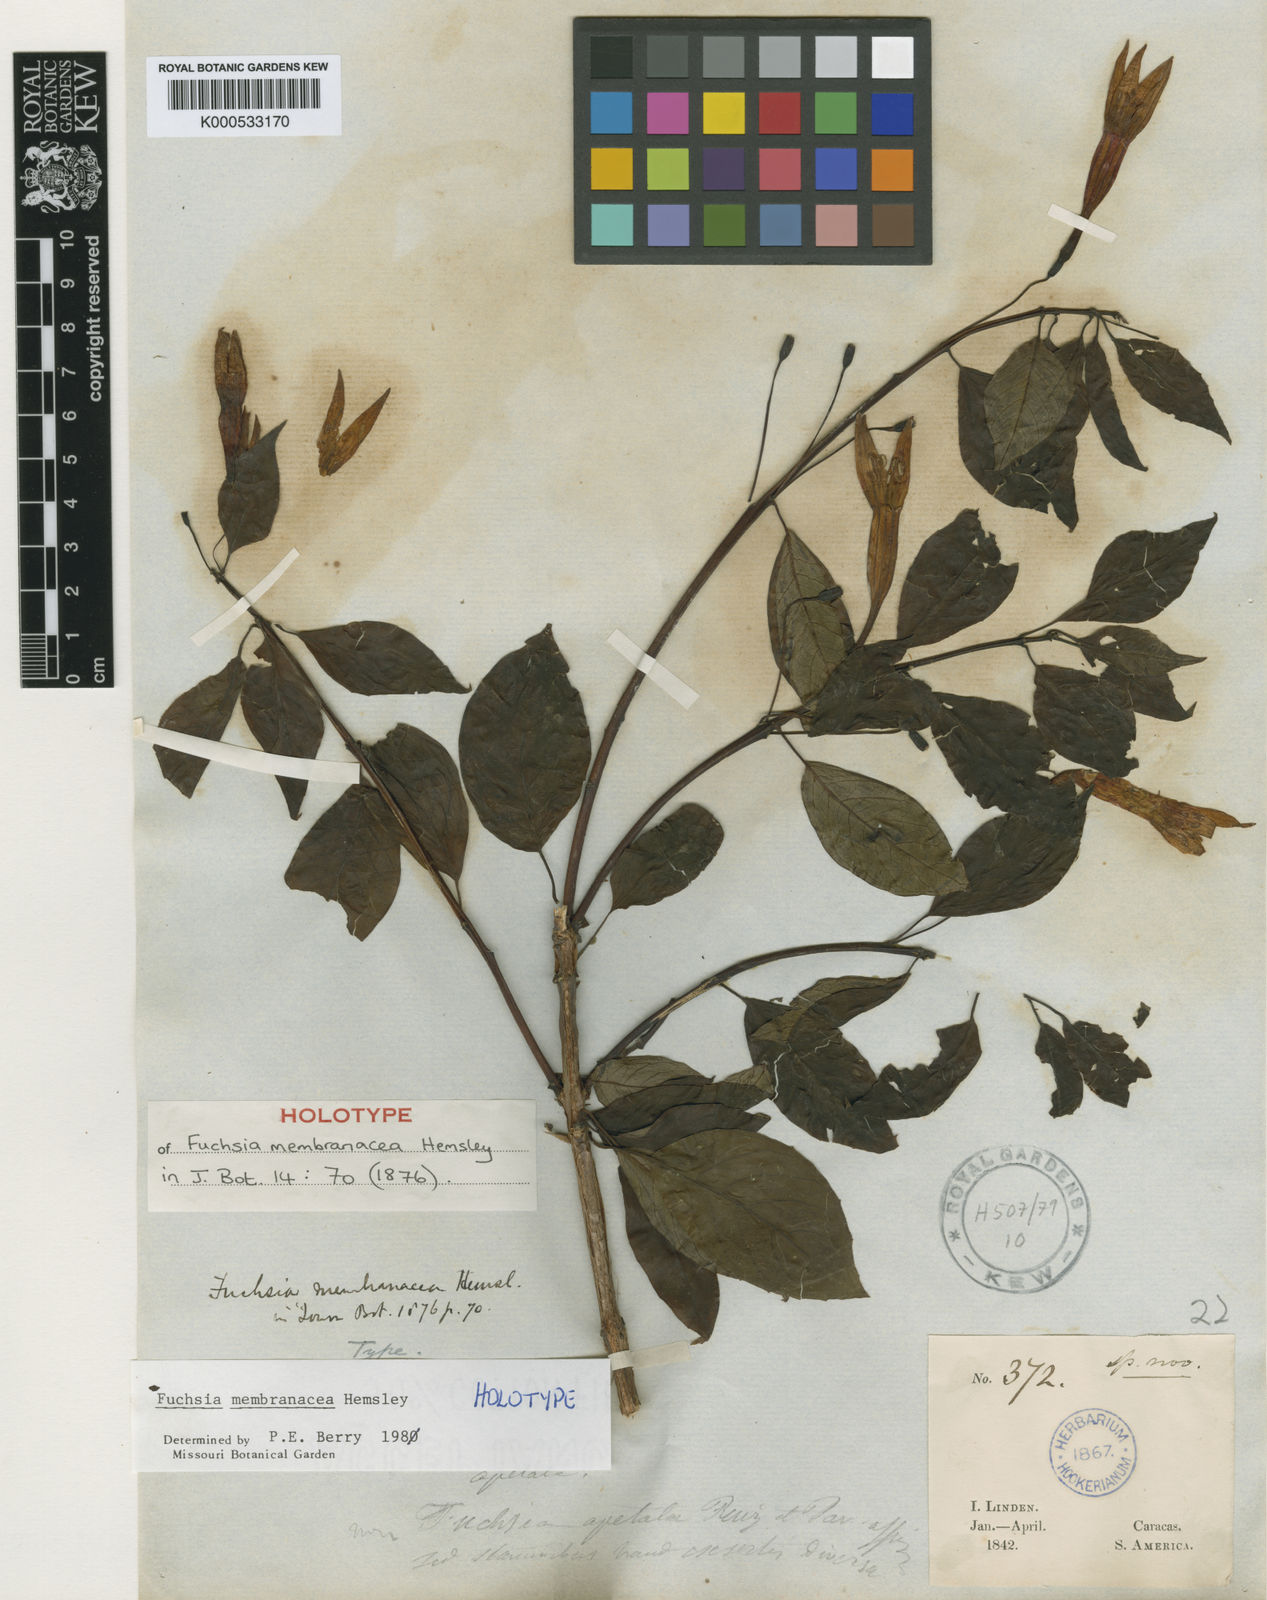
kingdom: Plantae
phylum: Tracheophyta
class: Magnoliopsida
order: Myrtales
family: Onagraceae
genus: Fuchsia
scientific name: Fuchsia membranacea
